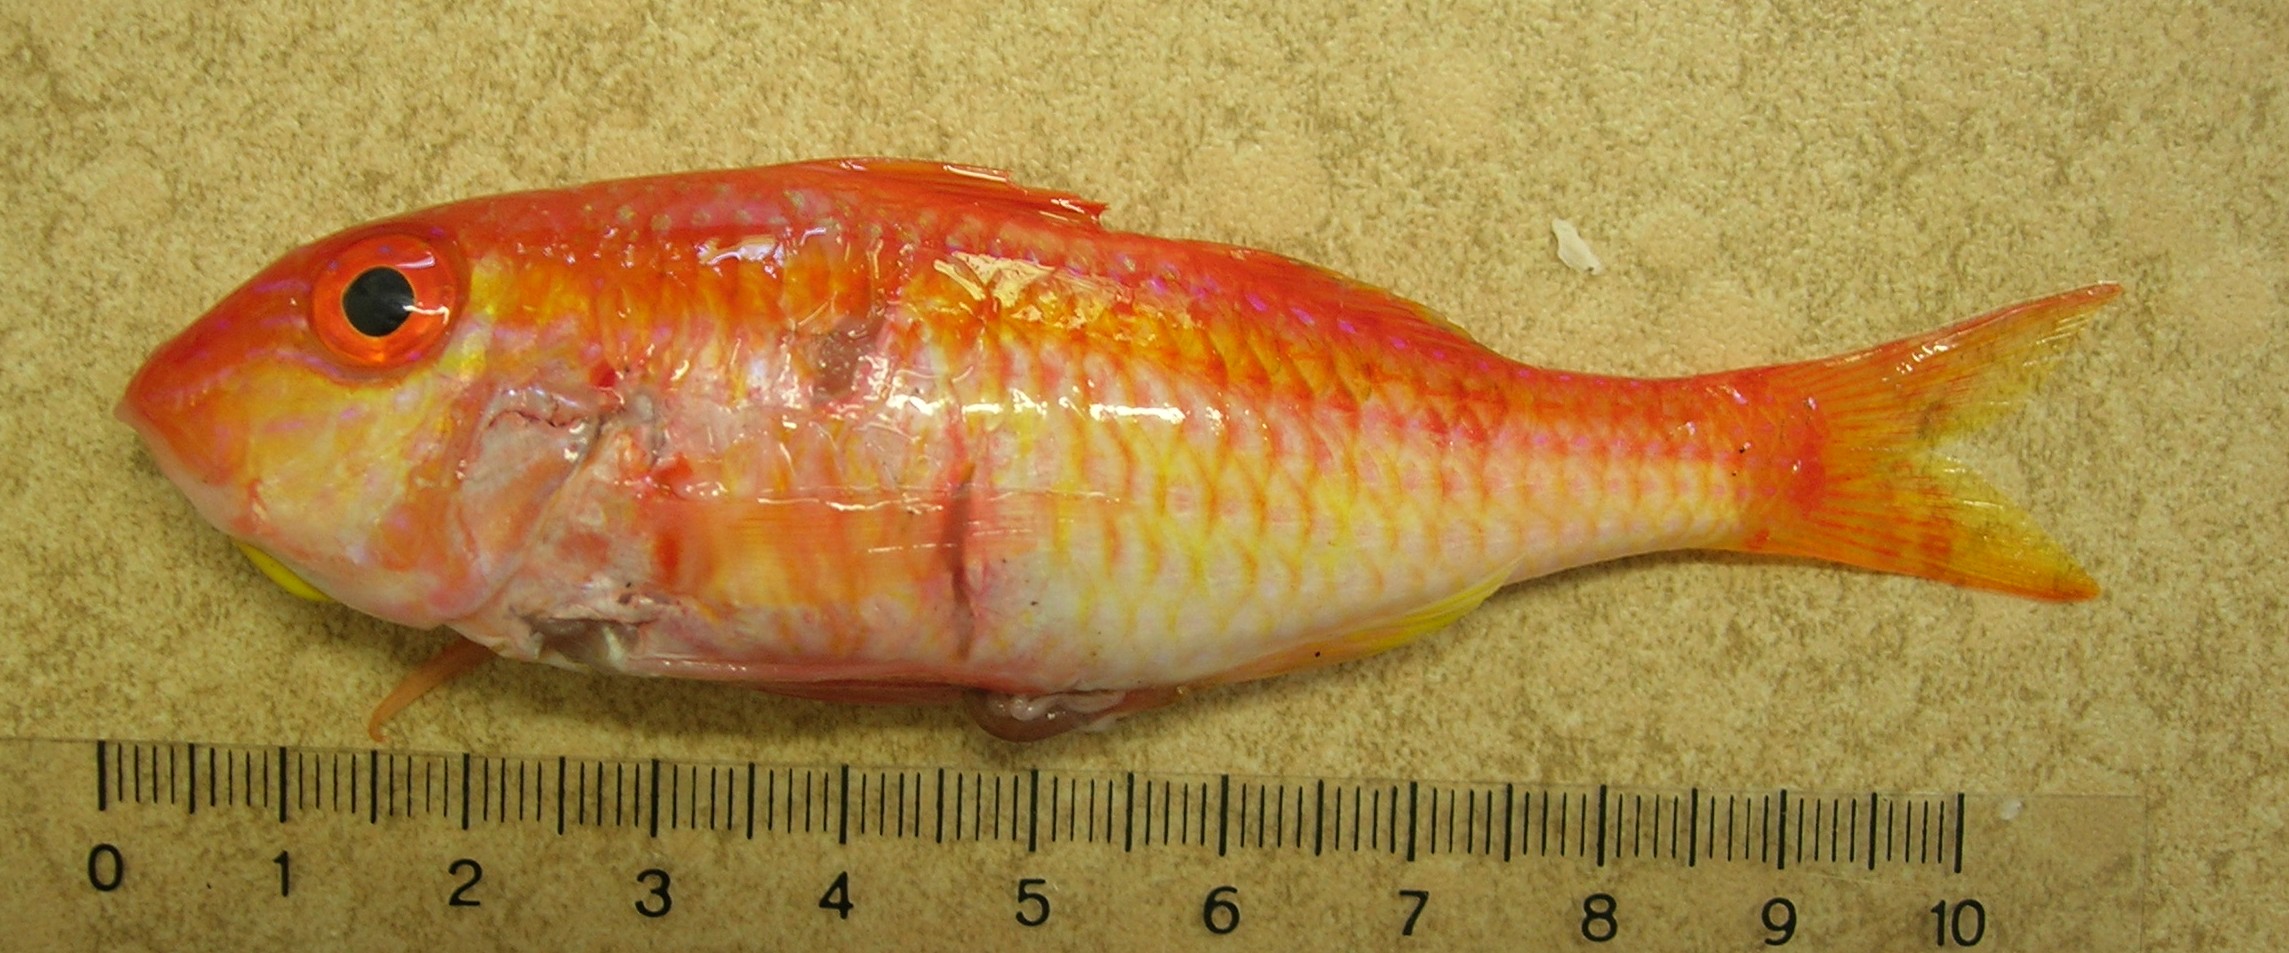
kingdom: Animalia
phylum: Chordata
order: Perciformes
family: Mullidae
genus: Parupeneus
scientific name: Parupeneus fraserorum
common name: Fraser’s goatfish
